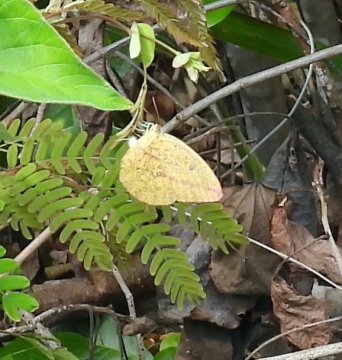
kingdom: Animalia
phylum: Arthropoda
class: Insecta
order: Lepidoptera
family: Pieridae
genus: Phoebis
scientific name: Phoebis agarithe
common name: Large Orange Sulphur
